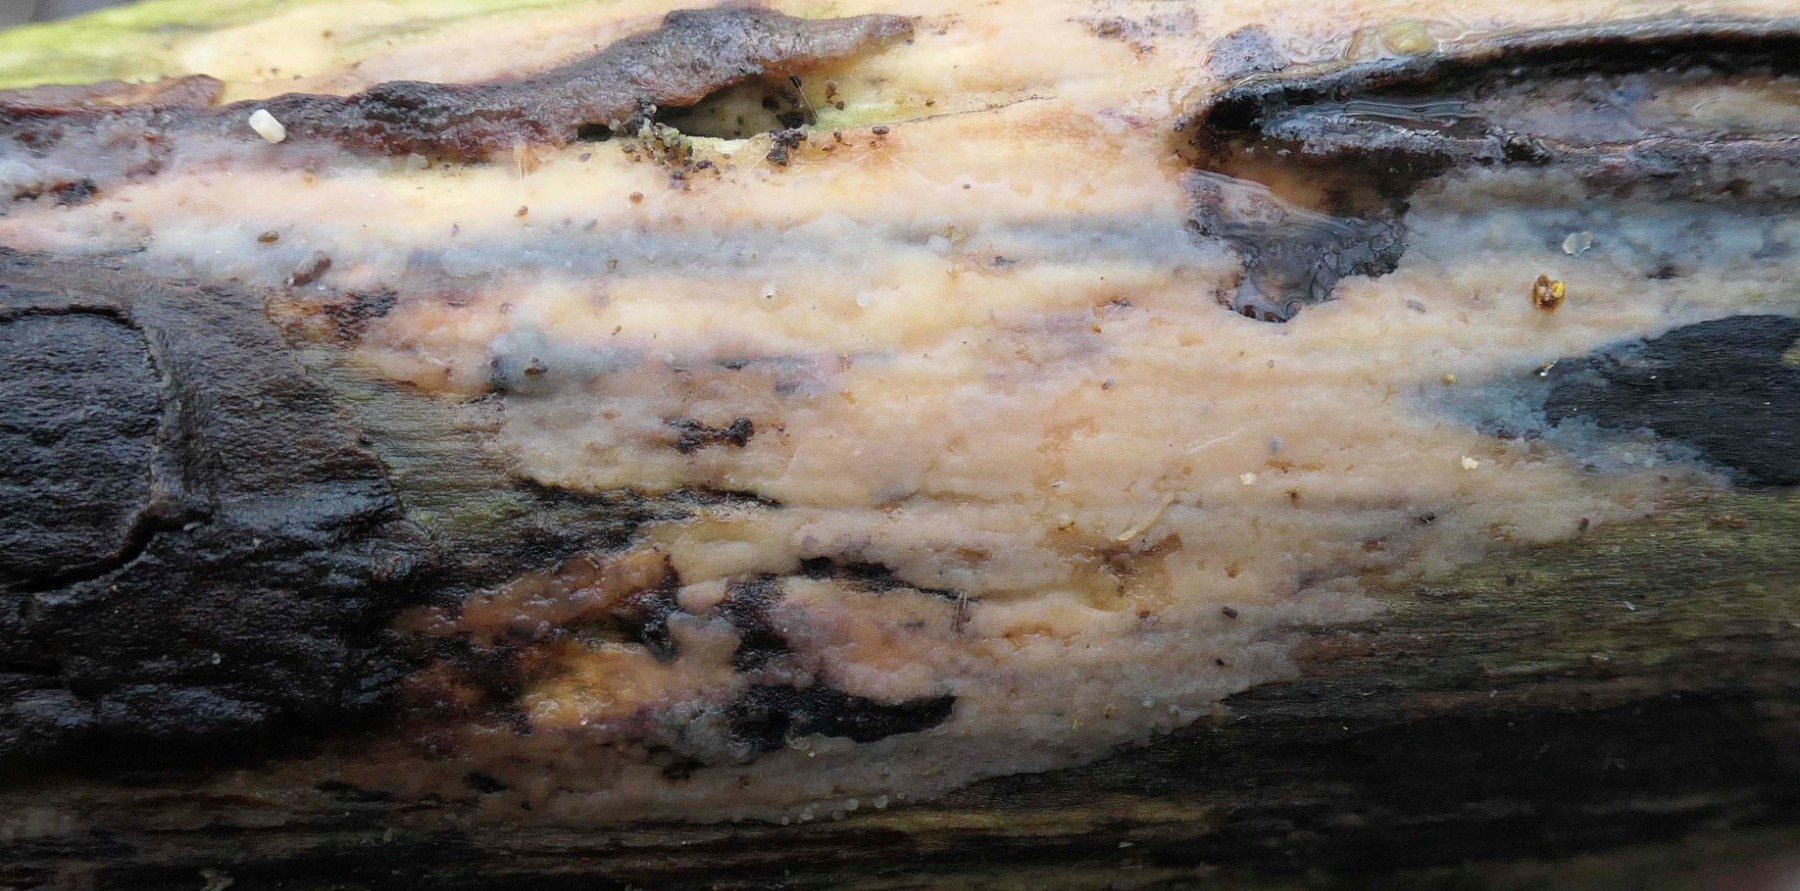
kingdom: Fungi
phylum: Basidiomycota
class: Tremellomycetes
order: Tremellales
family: Exidiaceae
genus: Exidiopsis
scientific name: Exidiopsis effusa
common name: smuk bævrehinde
